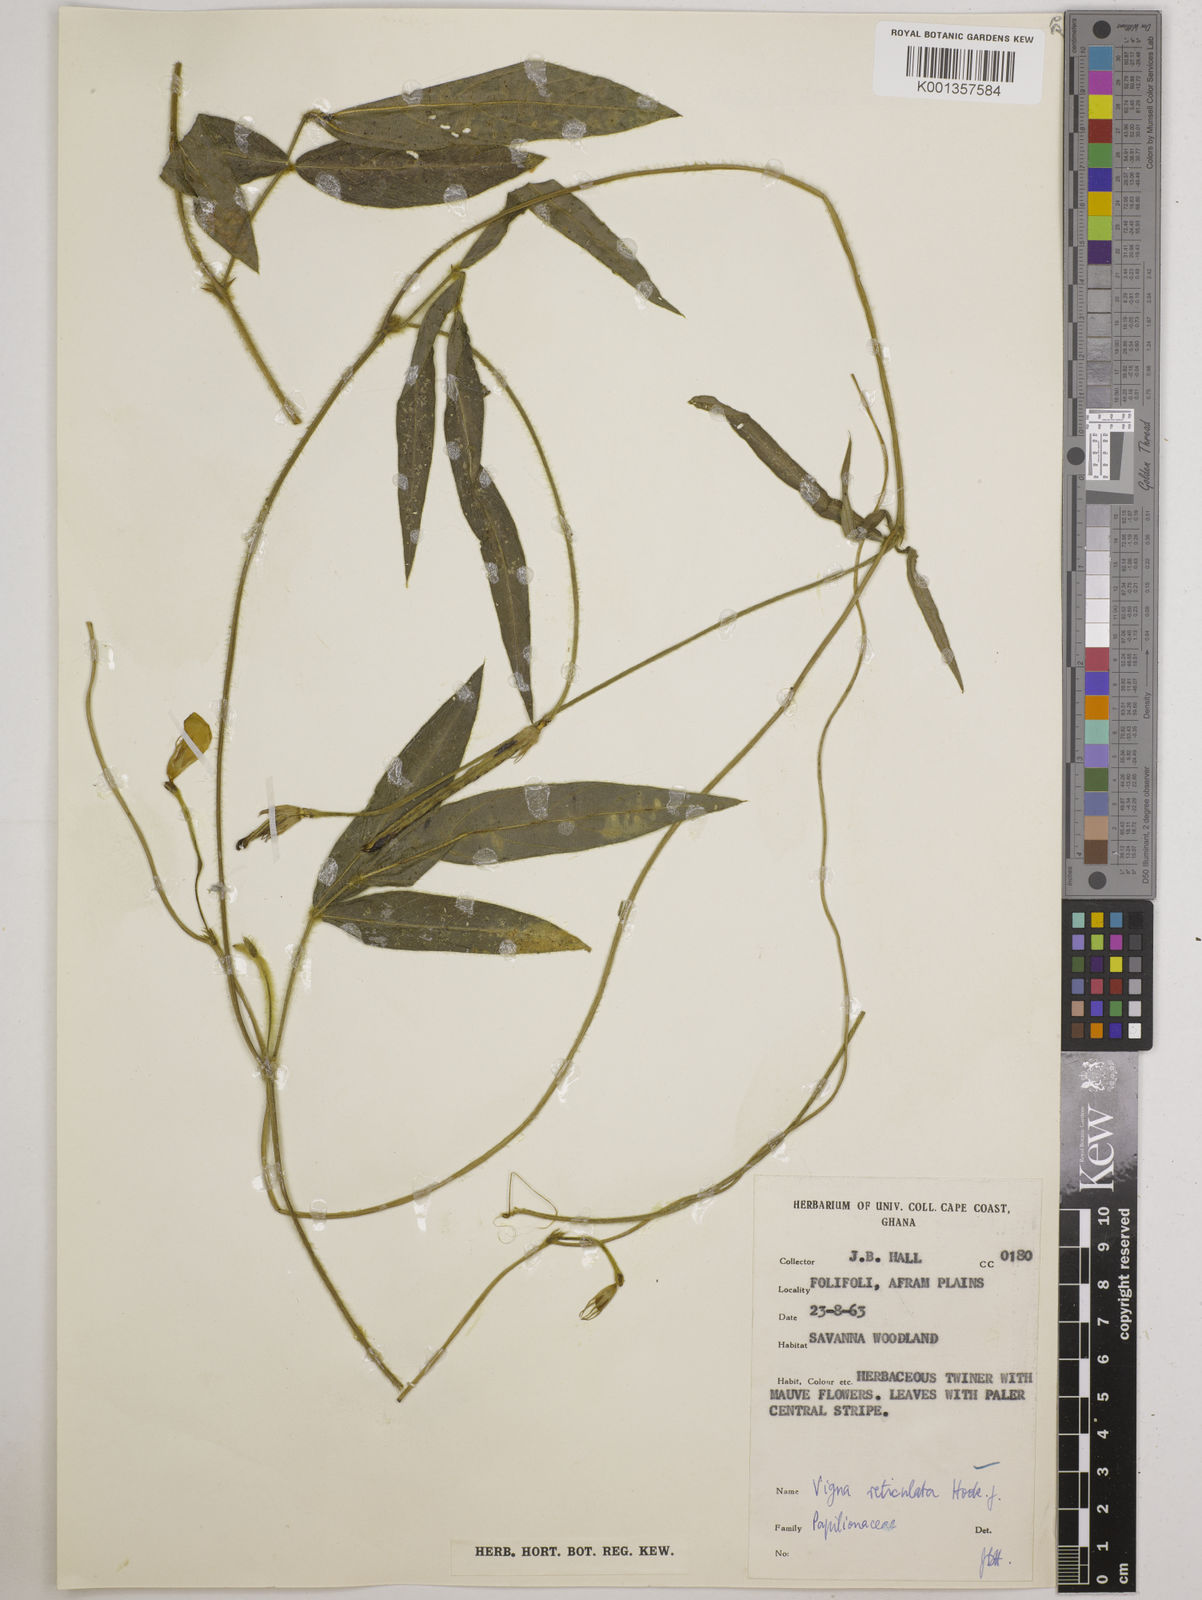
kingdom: Plantae
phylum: Tracheophyta
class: Magnoliopsida
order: Fabales
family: Fabaceae
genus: Vigna
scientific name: Vigna reticulata
